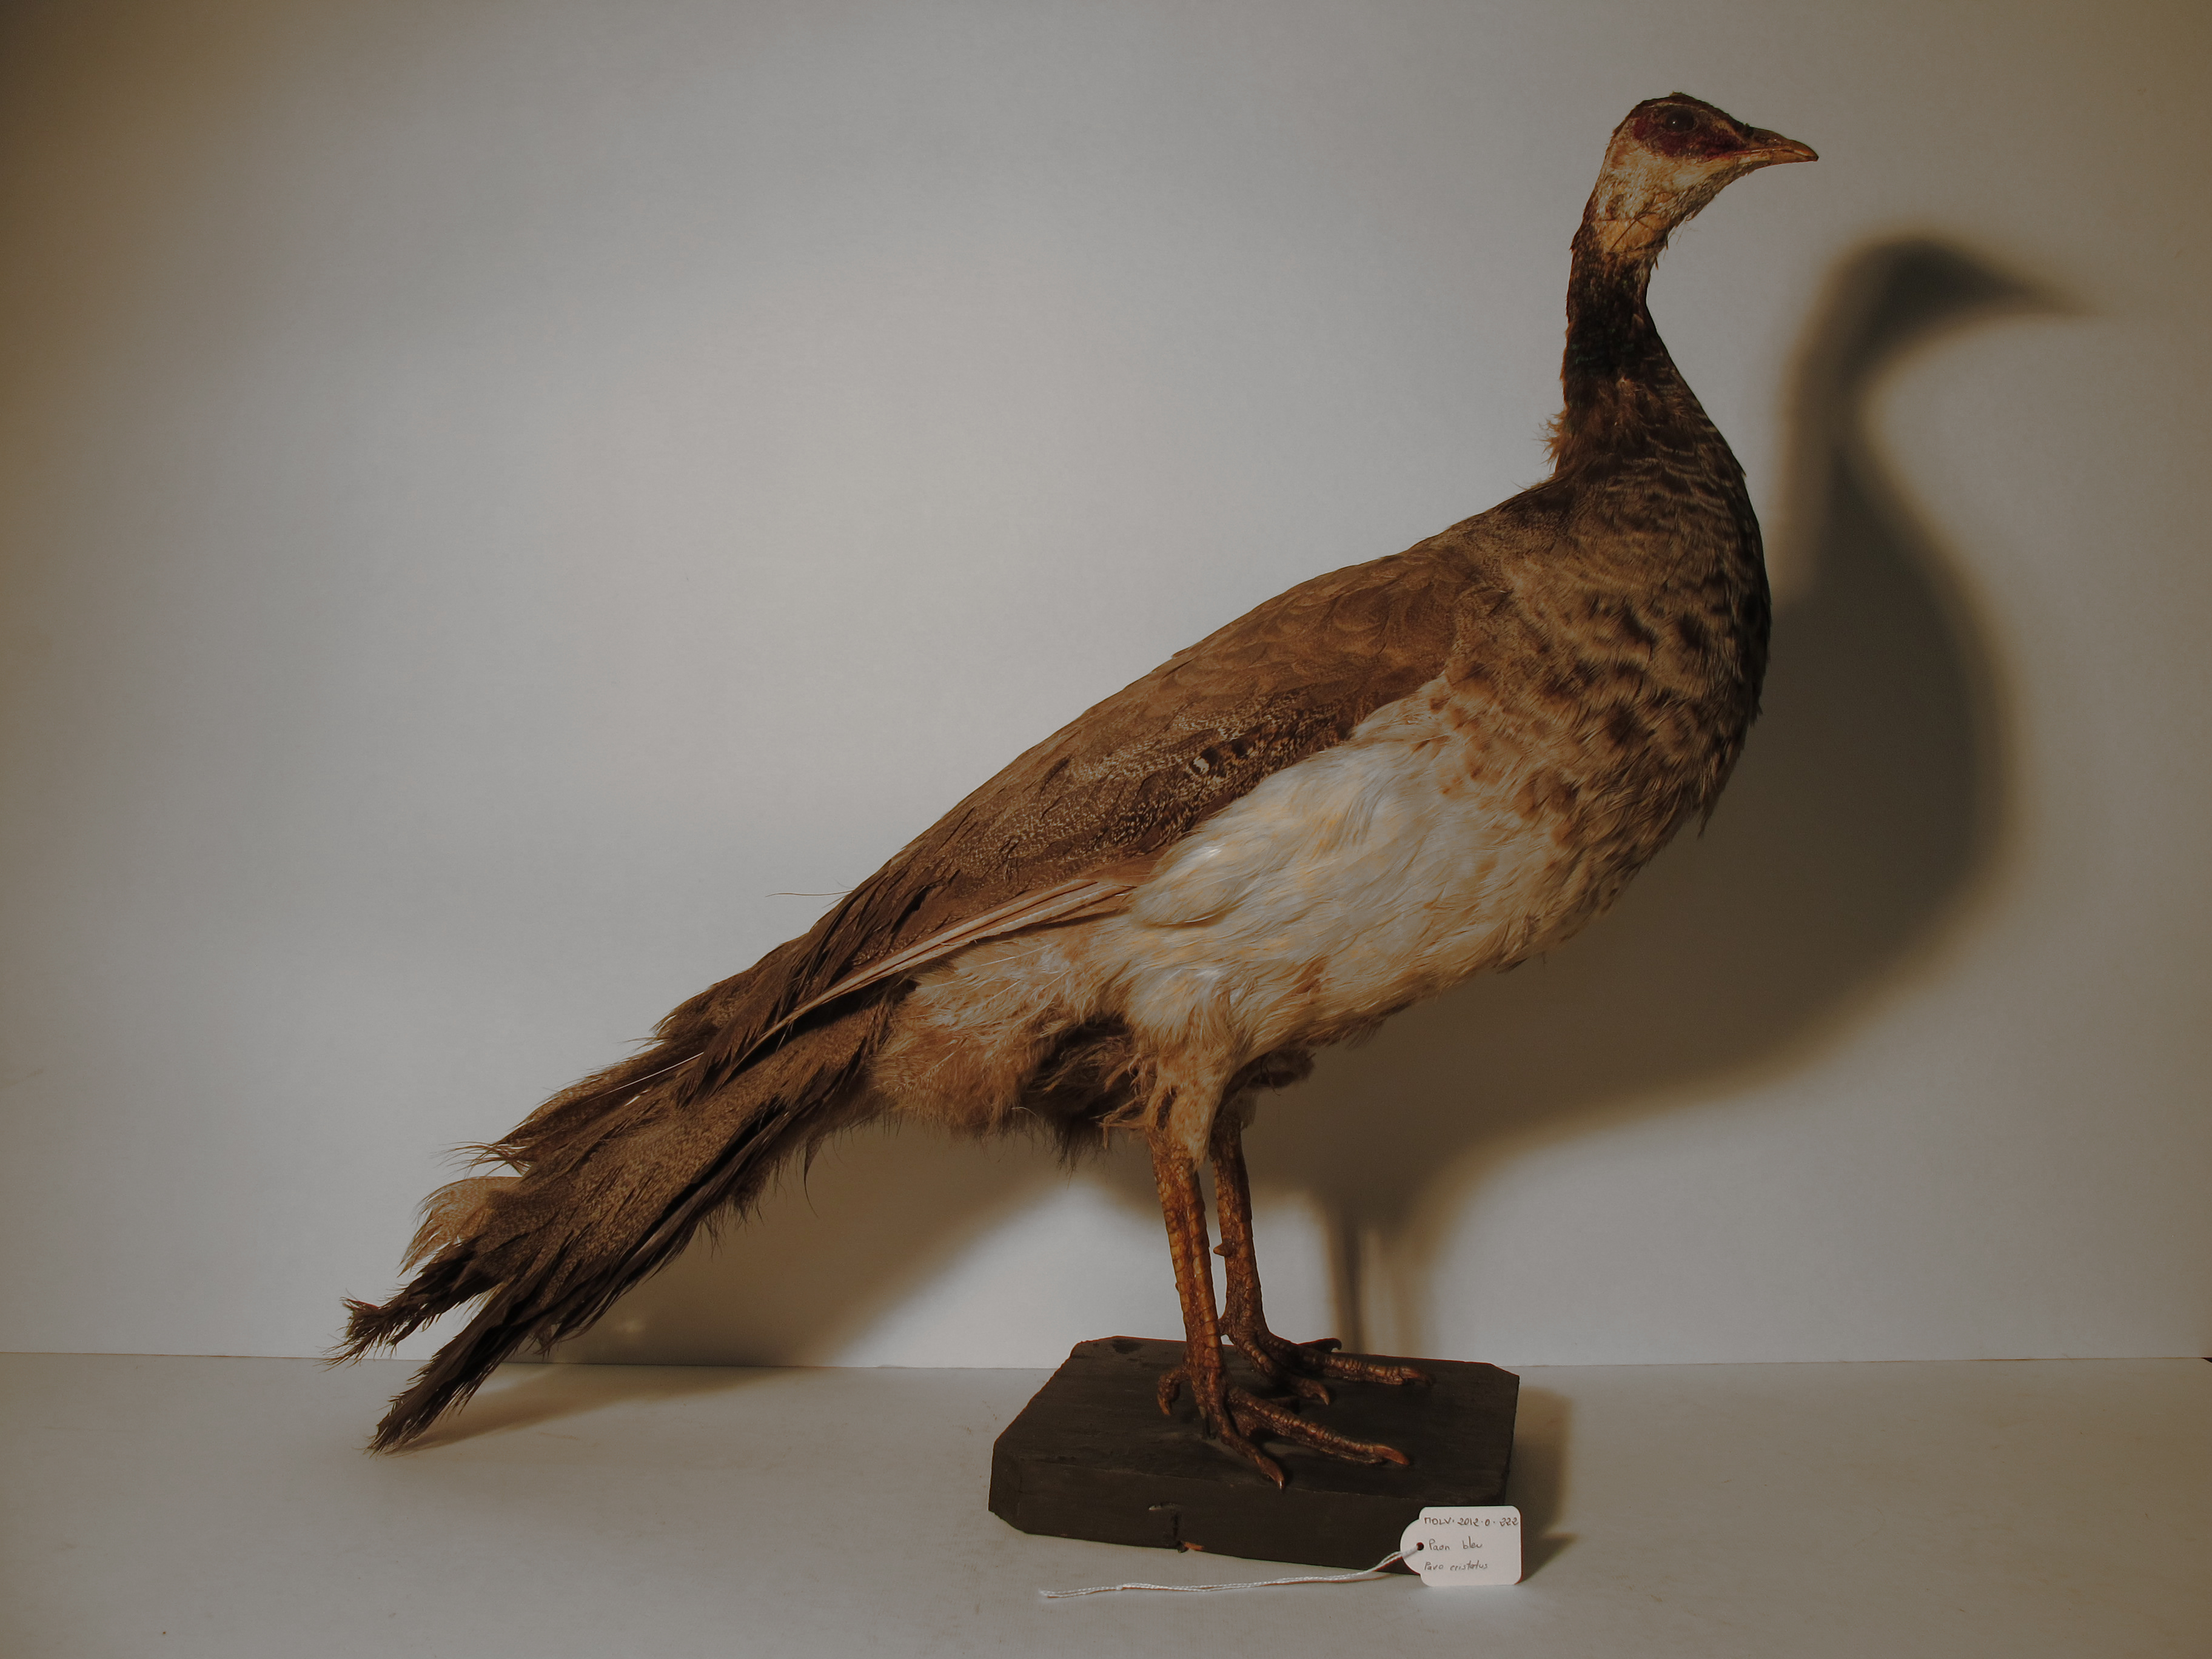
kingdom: Animalia
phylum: Chordata
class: Aves
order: Galliformes
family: Phasianidae
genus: Pavo
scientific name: Pavo cristatus
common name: Indian Peafowl
